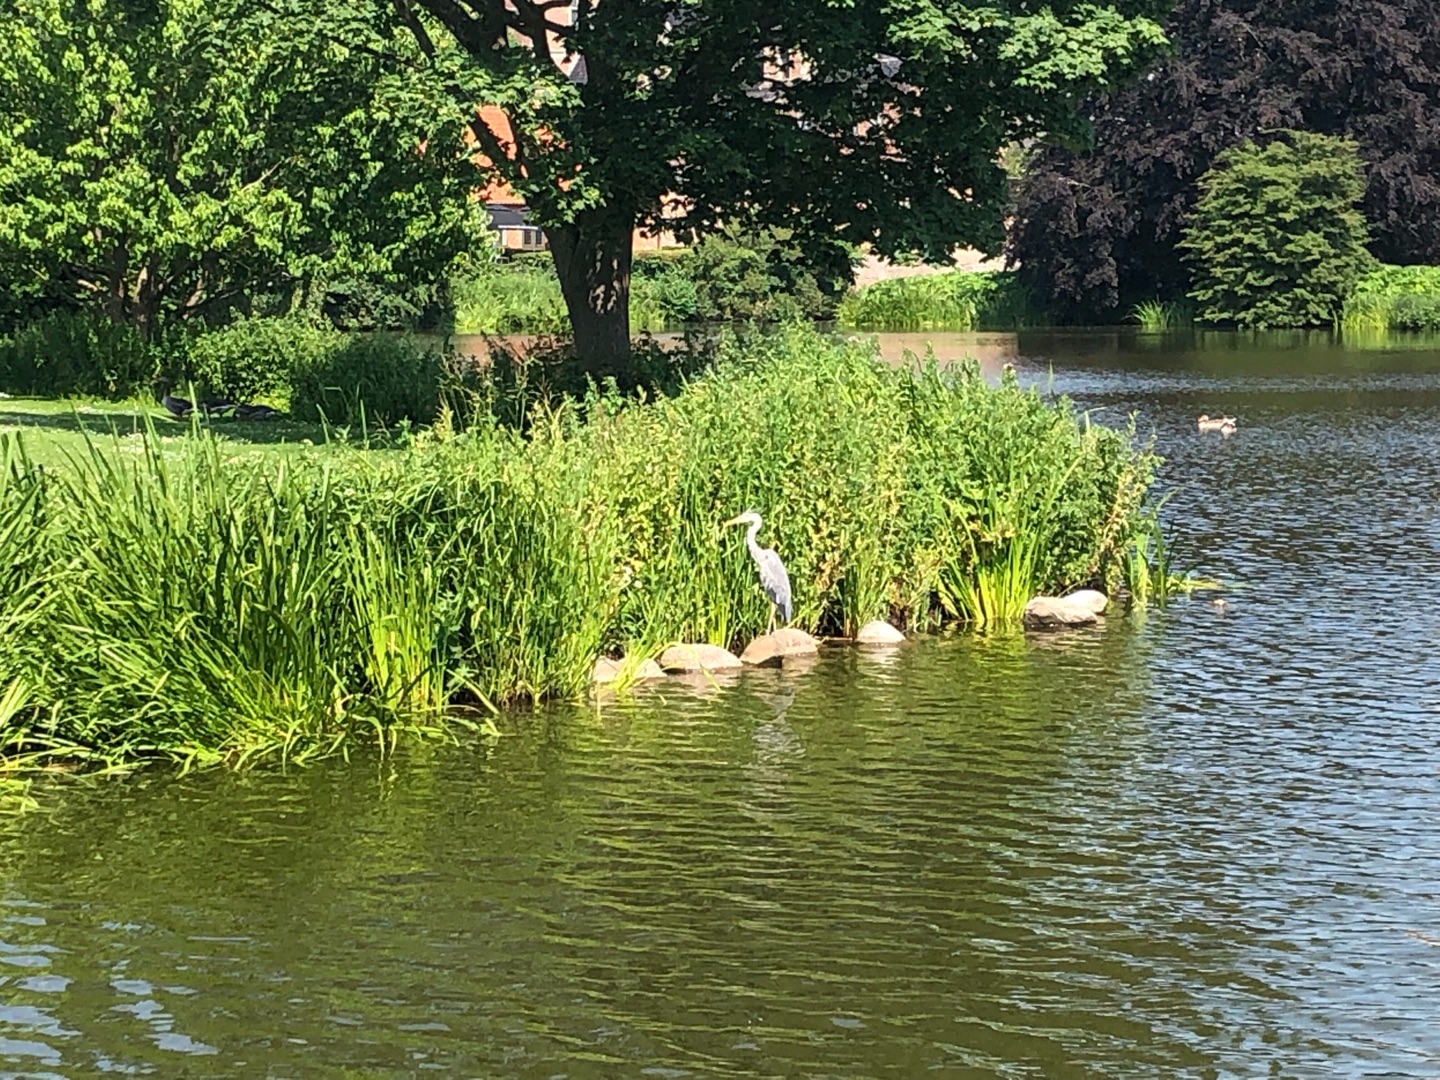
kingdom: Animalia
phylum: Chordata
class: Aves
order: Pelecaniformes
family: Ardeidae
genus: Ardea
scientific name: Ardea cinerea
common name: Fiskehejre
